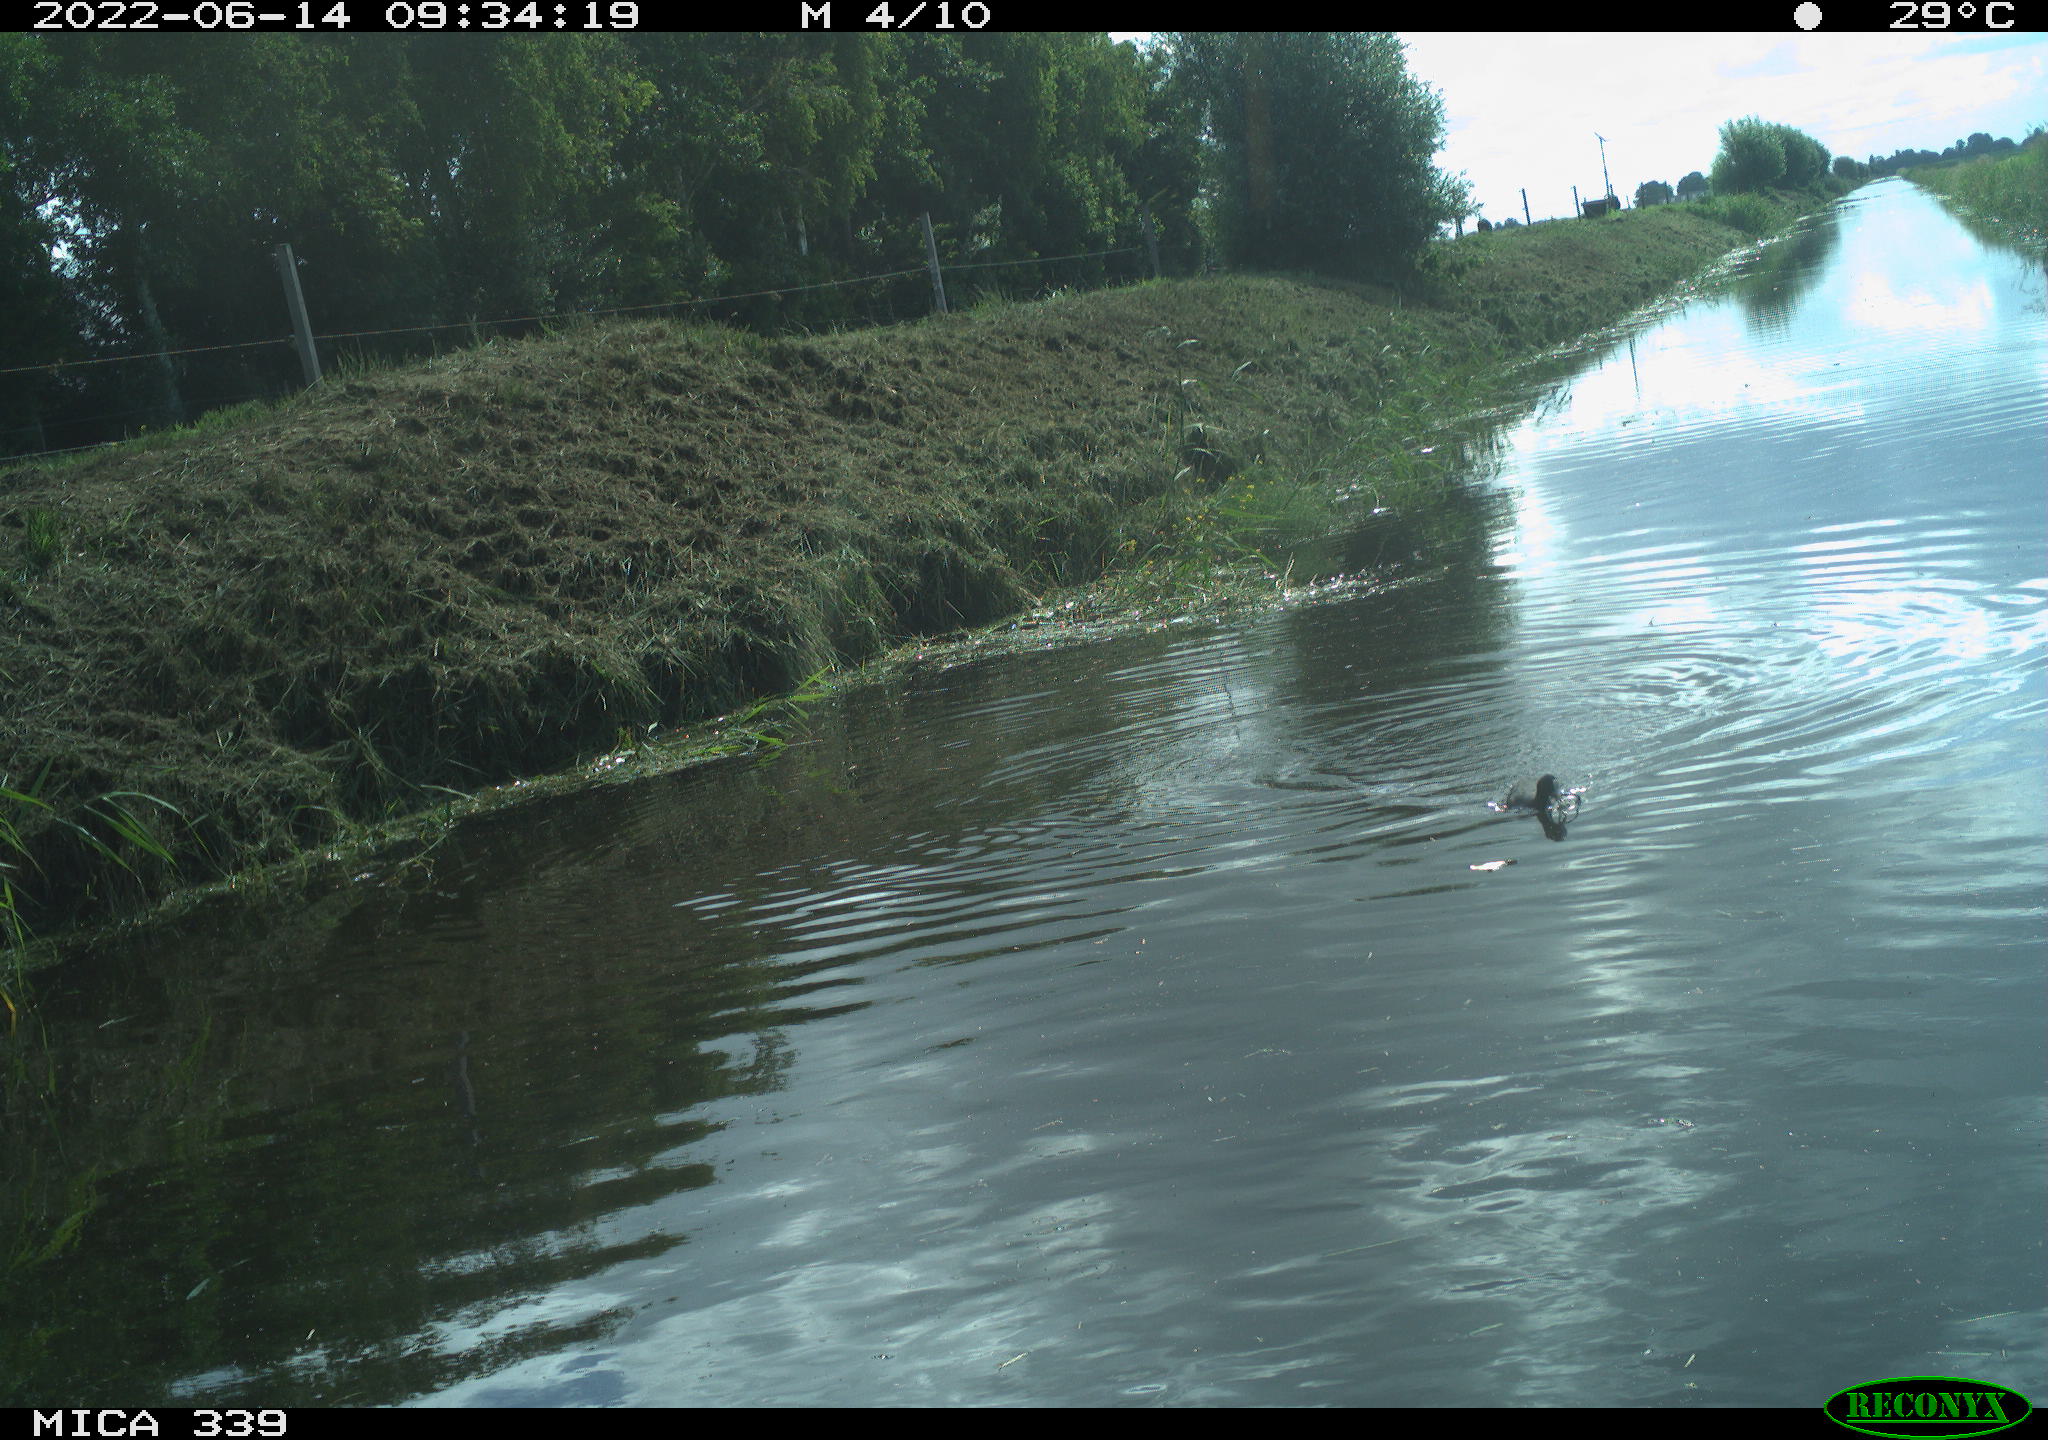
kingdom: Animalia
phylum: Chordata
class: Aves
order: Gruiformes
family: Rallidae
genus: Fulica
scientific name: Fulica atra
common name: Eurasian coot
